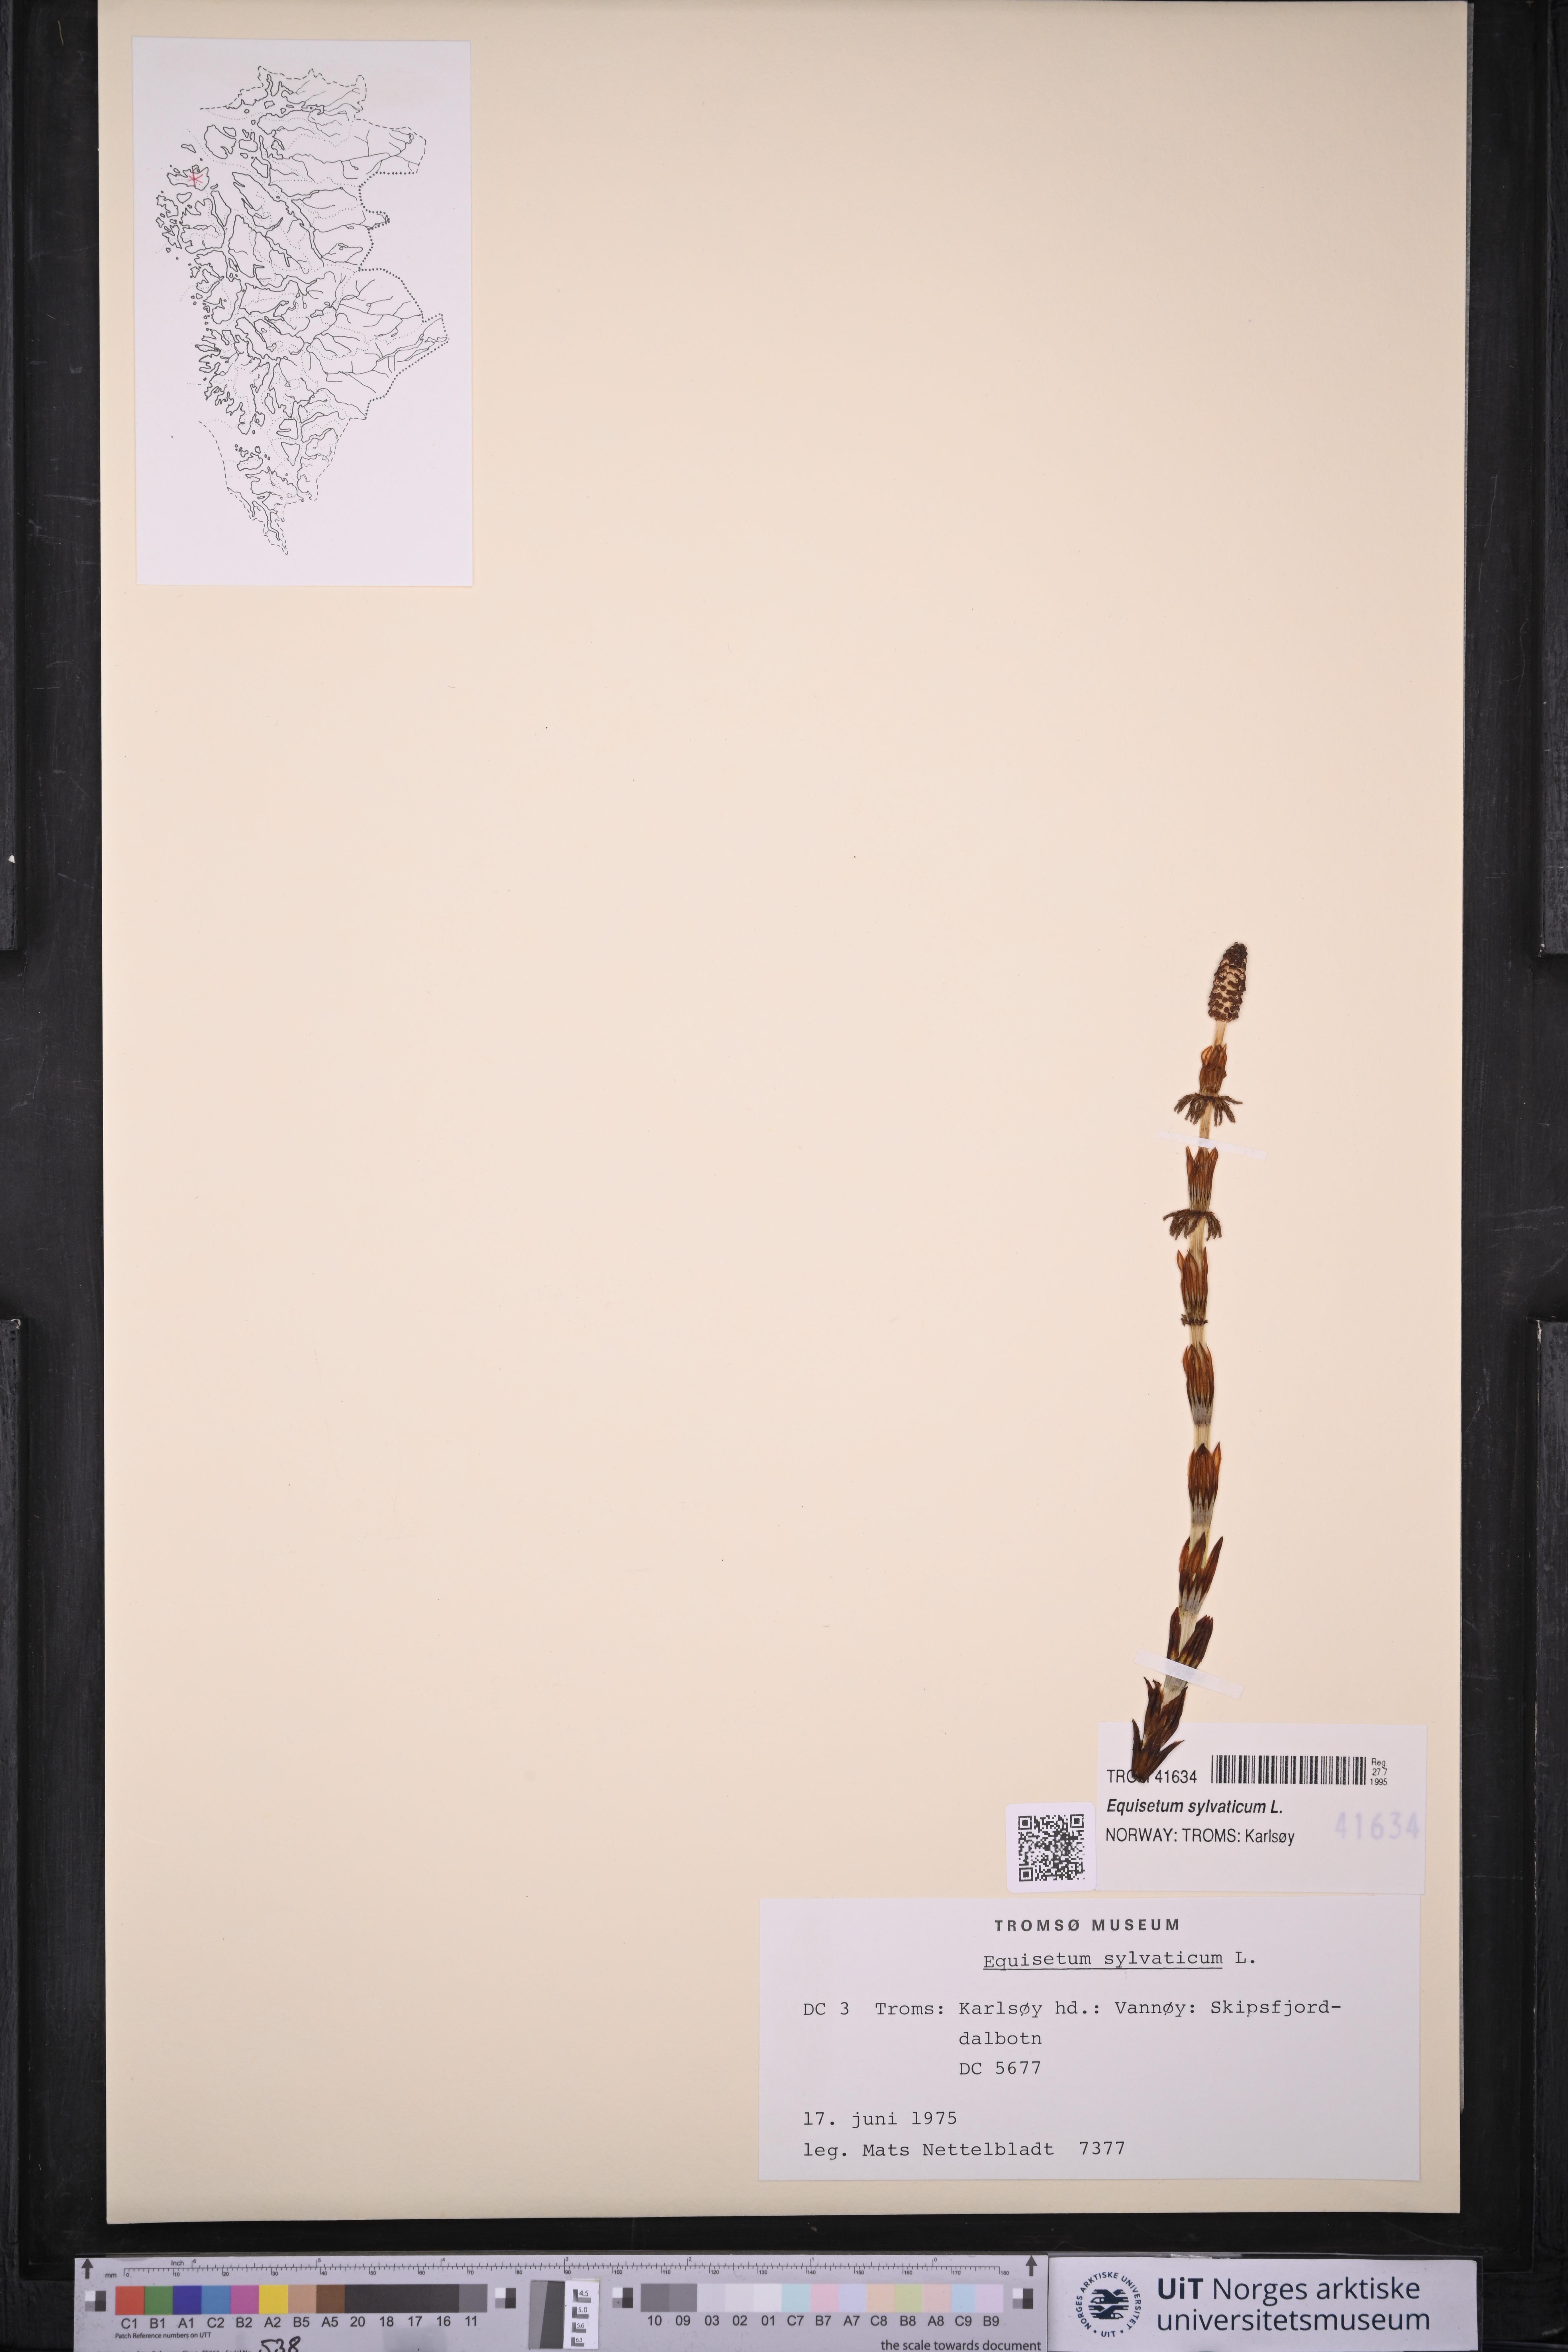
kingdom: Plantae
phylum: Tracheophyta
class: Polypodiopsida
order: Equisetales
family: Equisetaceae
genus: Equisetum
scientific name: Equisetum sylvaticum
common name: Wood horsetail
